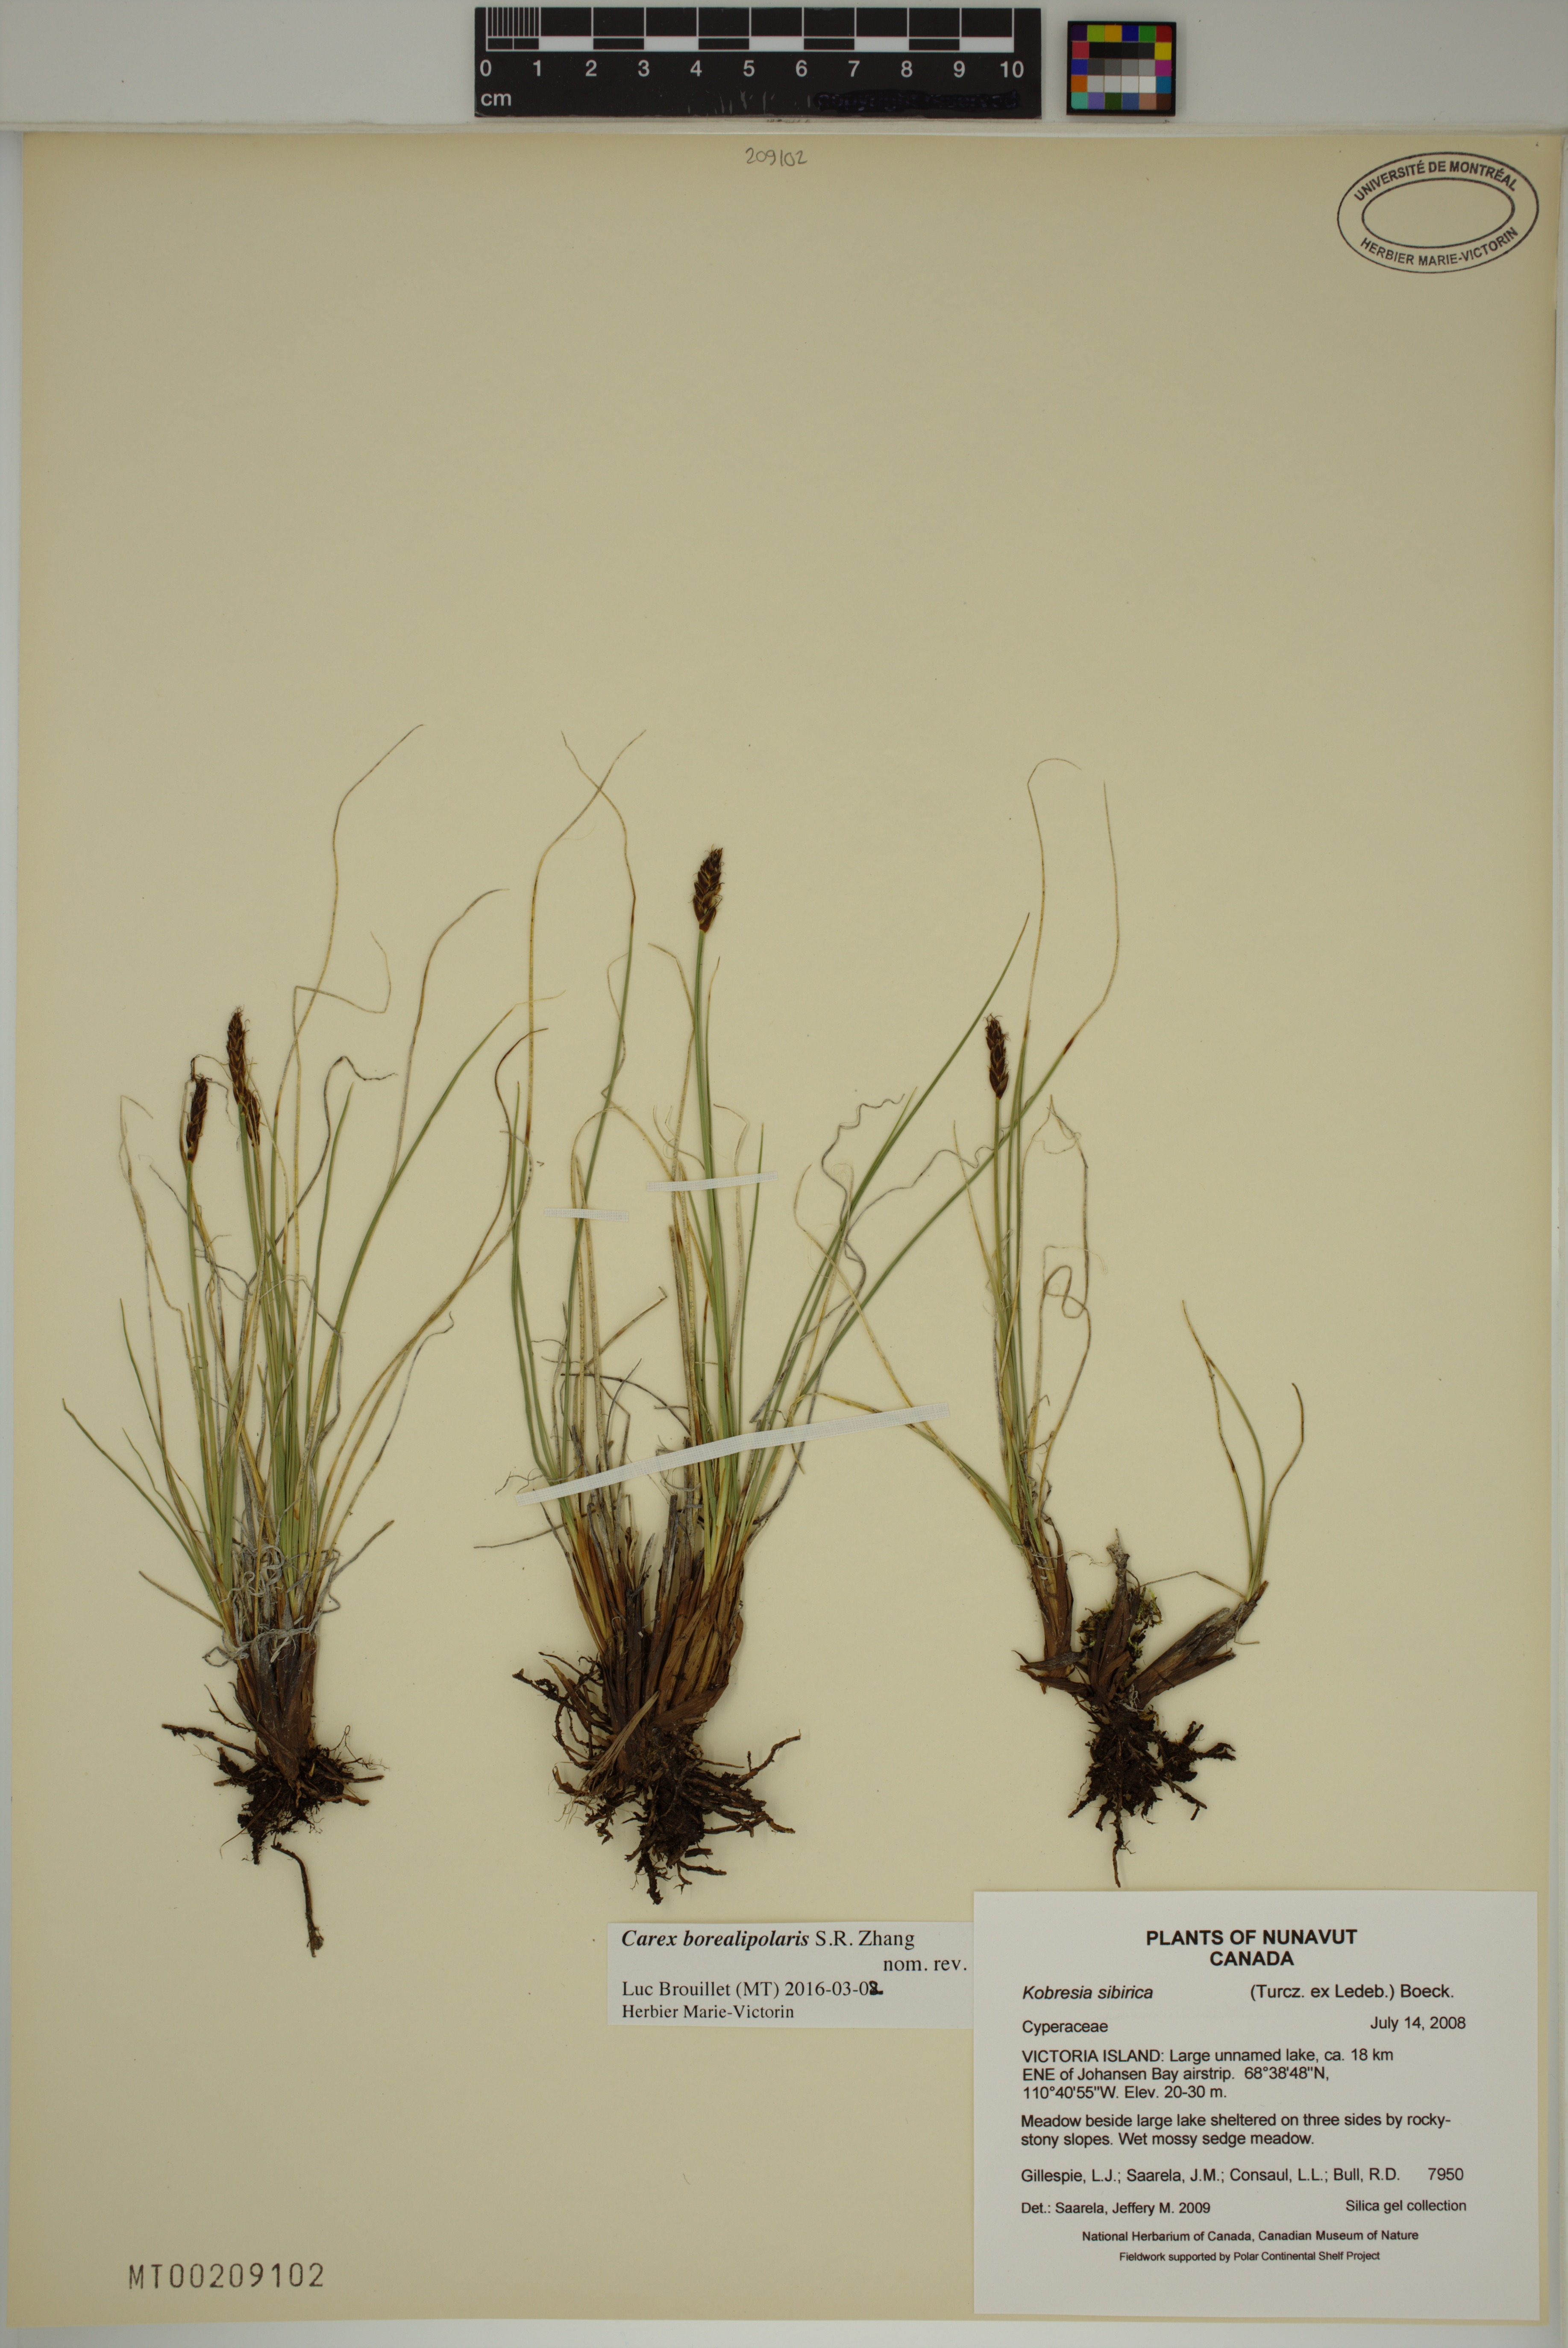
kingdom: Plantae
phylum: Tracheophyta
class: Liliopsida
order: Poales
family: Cyperaceae
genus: Carex
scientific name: Carex borealipolaris
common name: Siberian bog sedge
